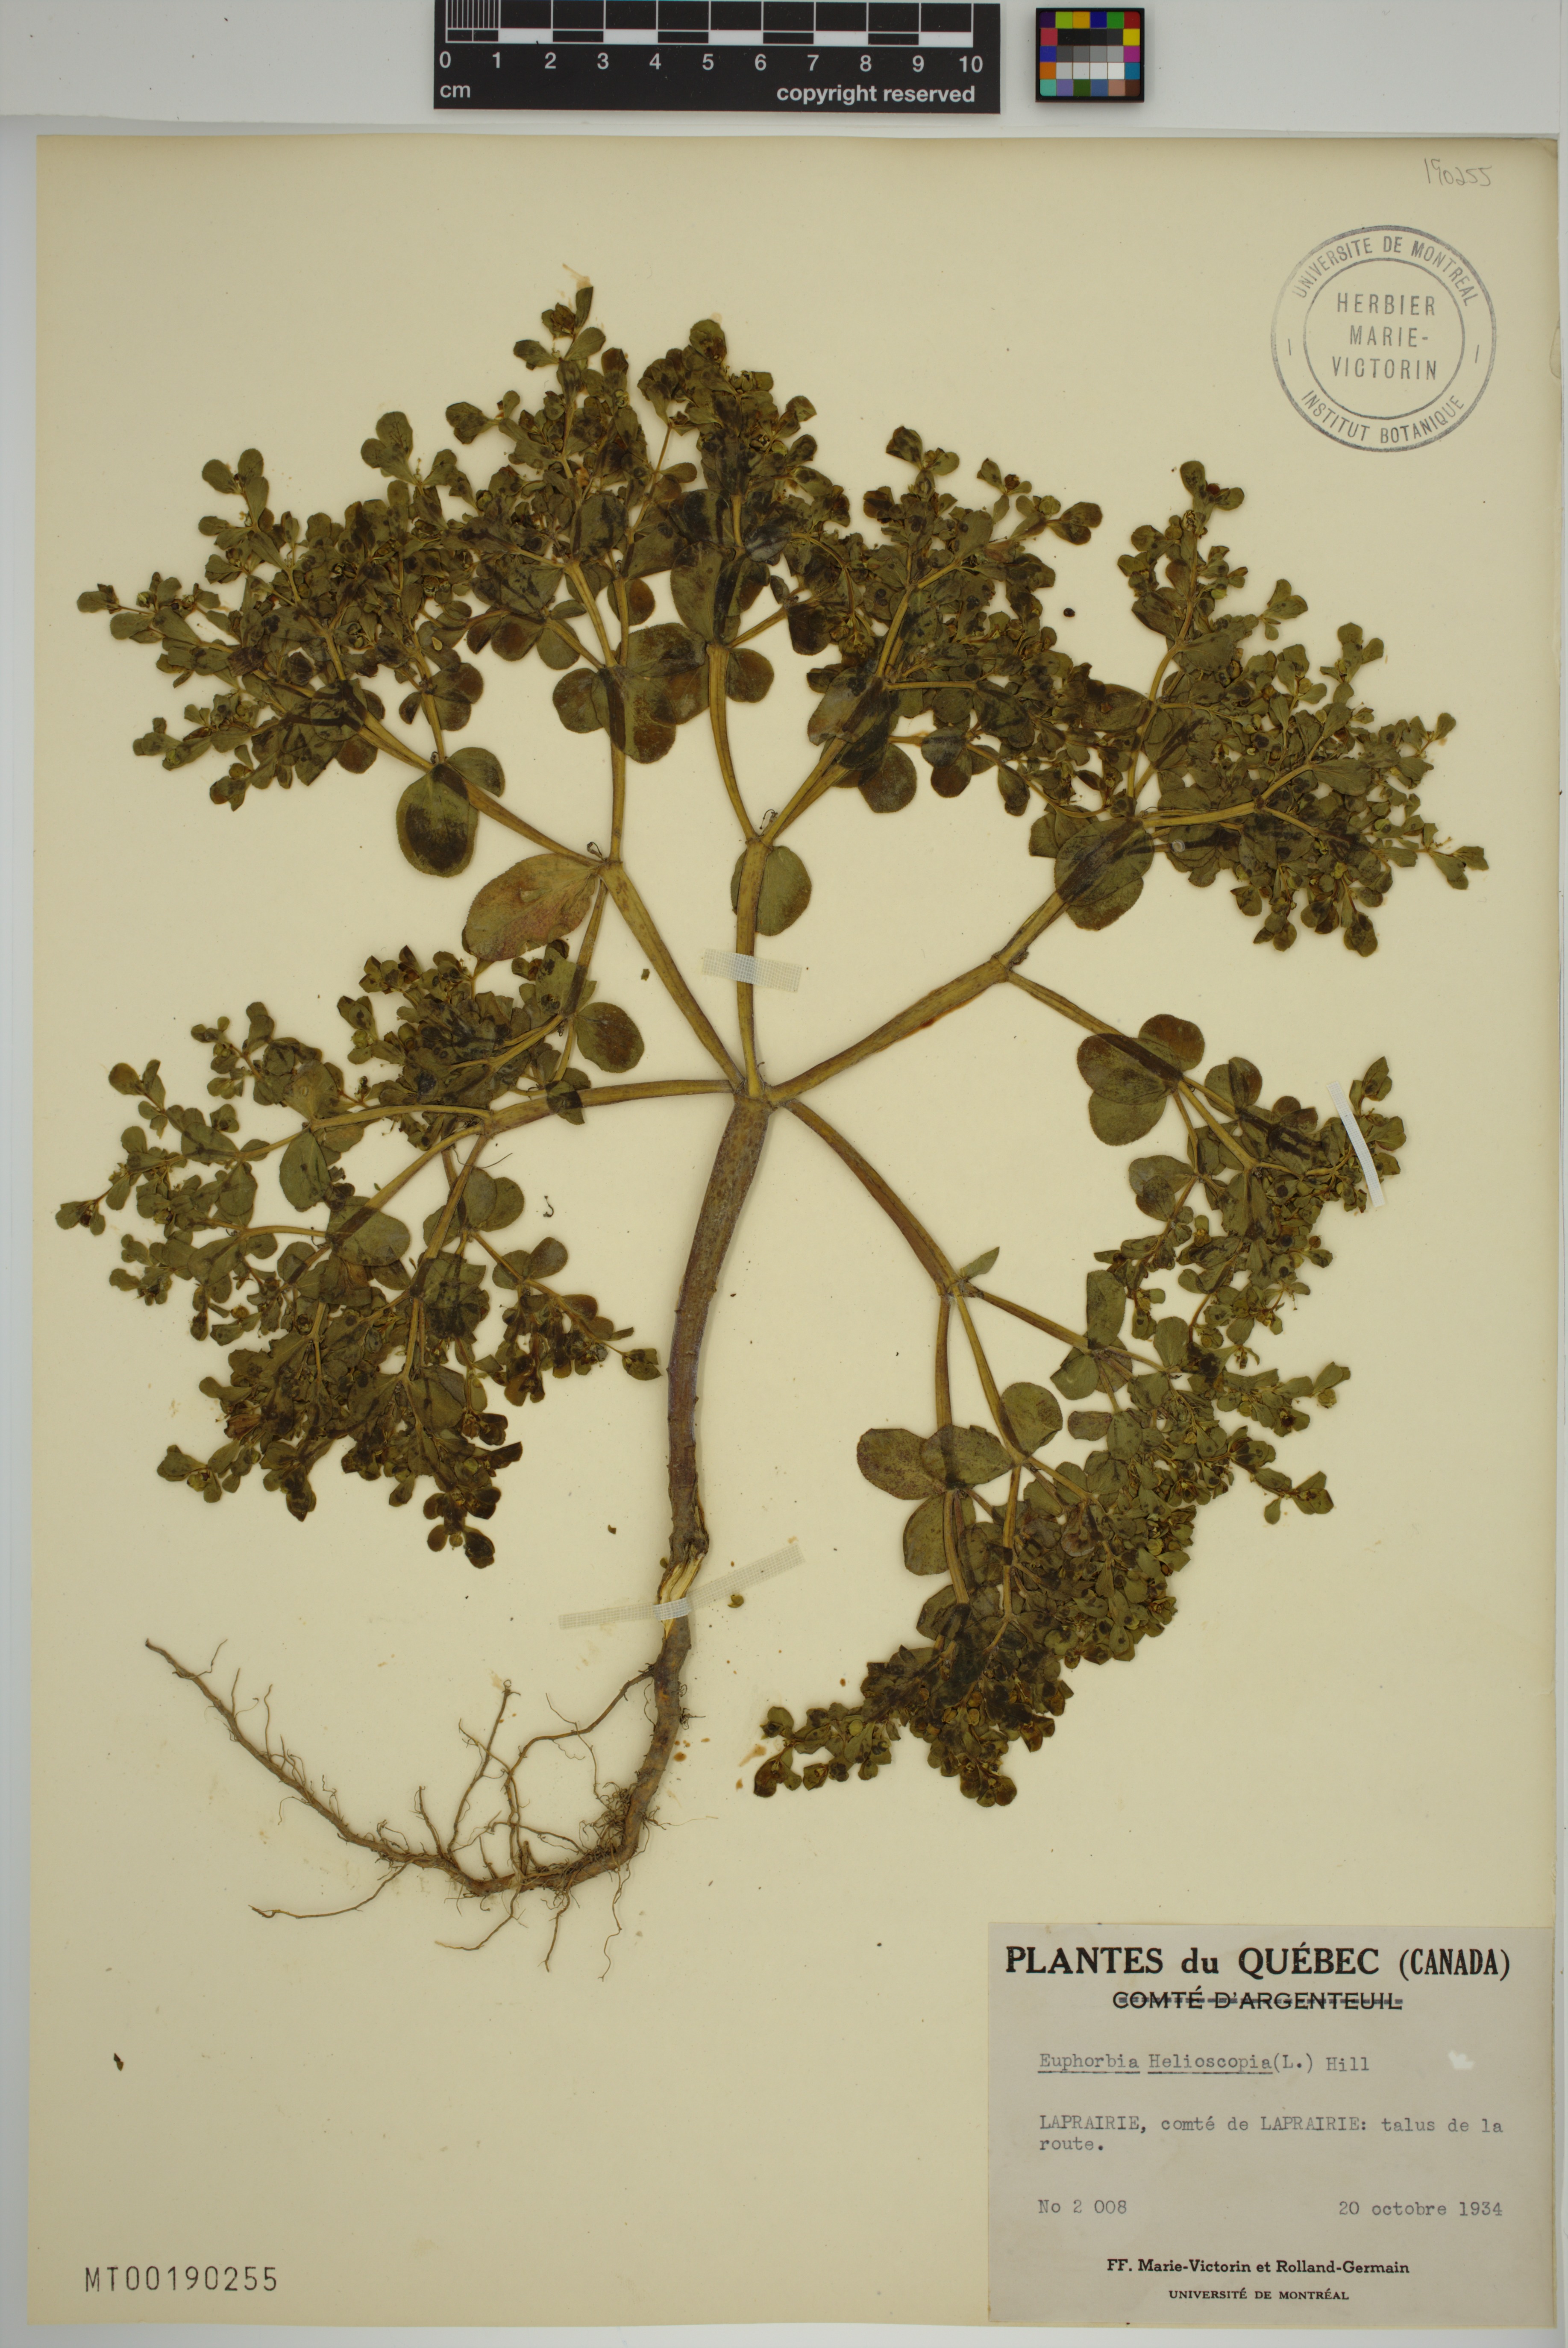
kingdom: Plantae
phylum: Tracheophyta
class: Magnoliopsida
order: Malpighiales
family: Euphorbiaceae
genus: Euphorbia
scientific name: Euphorbia helioscopia
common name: Sun spurge
